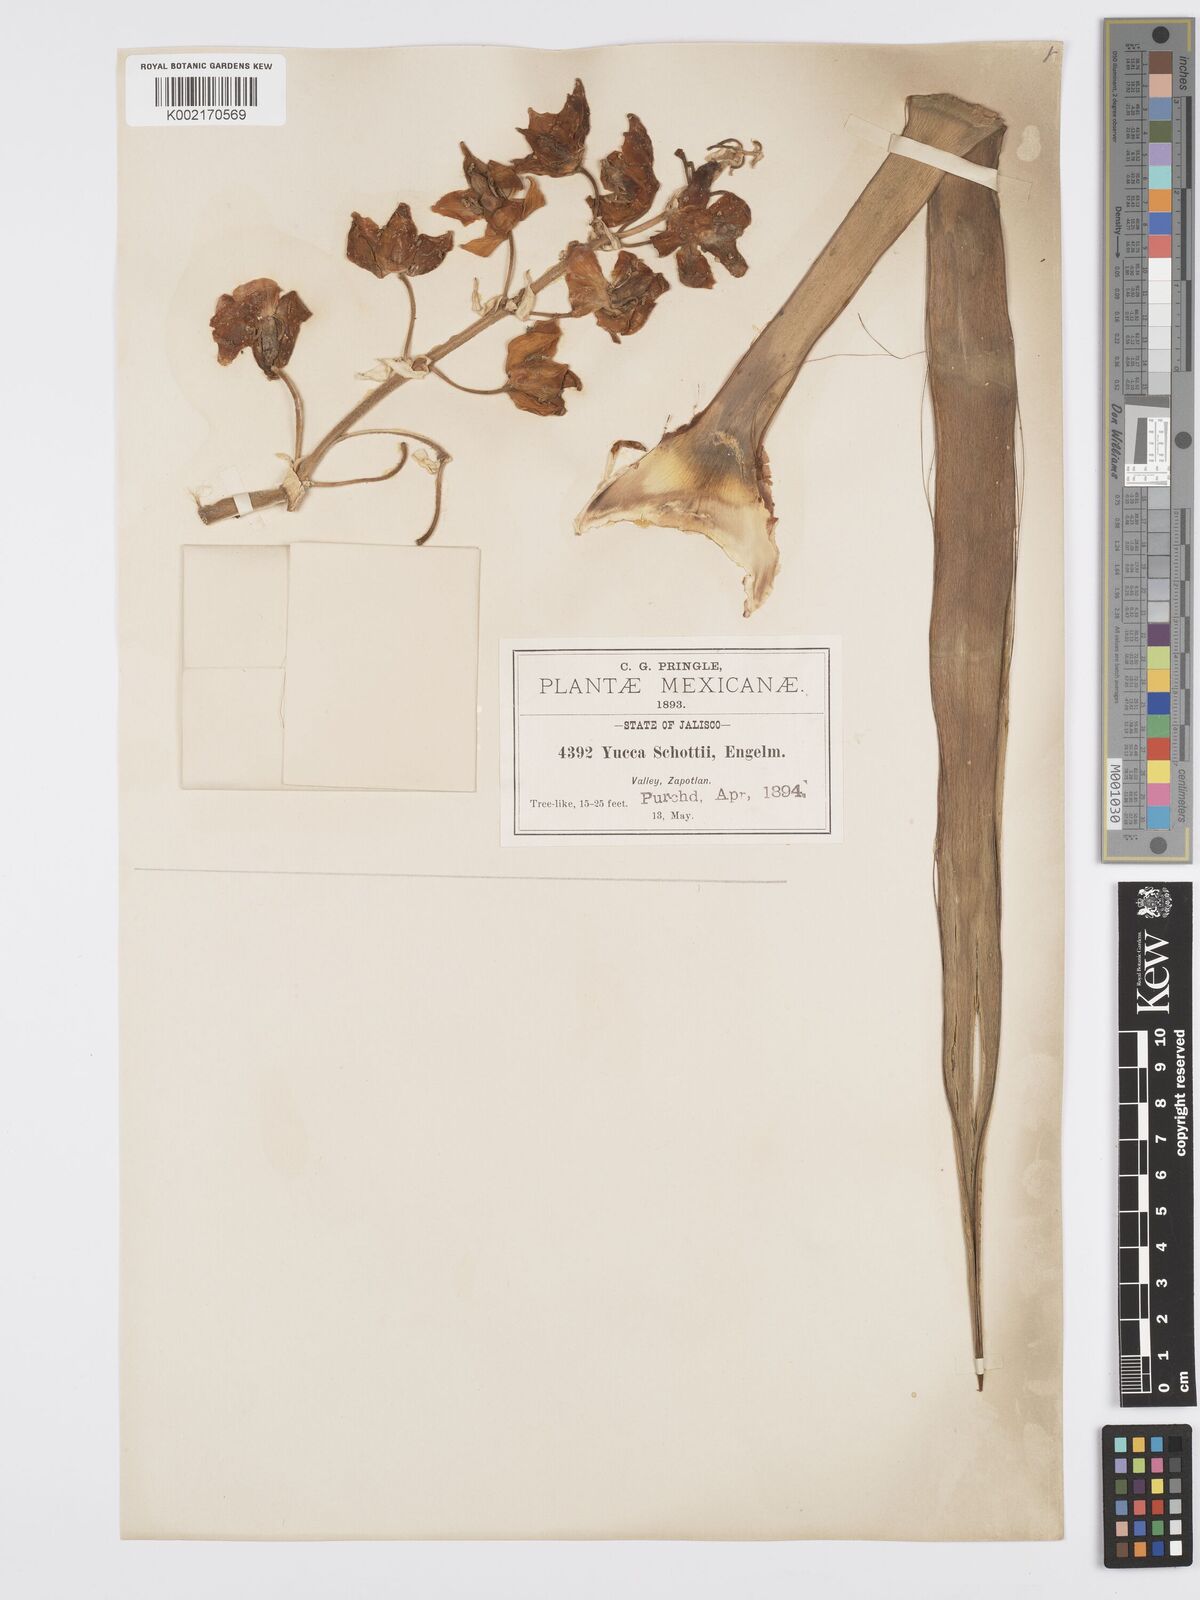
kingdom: Plantae
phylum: Tracheophyta
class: Liliopsida
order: Asparagales
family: Asparagaceae
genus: Yucca
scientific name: Yucca schottii
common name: Hoary yucca
